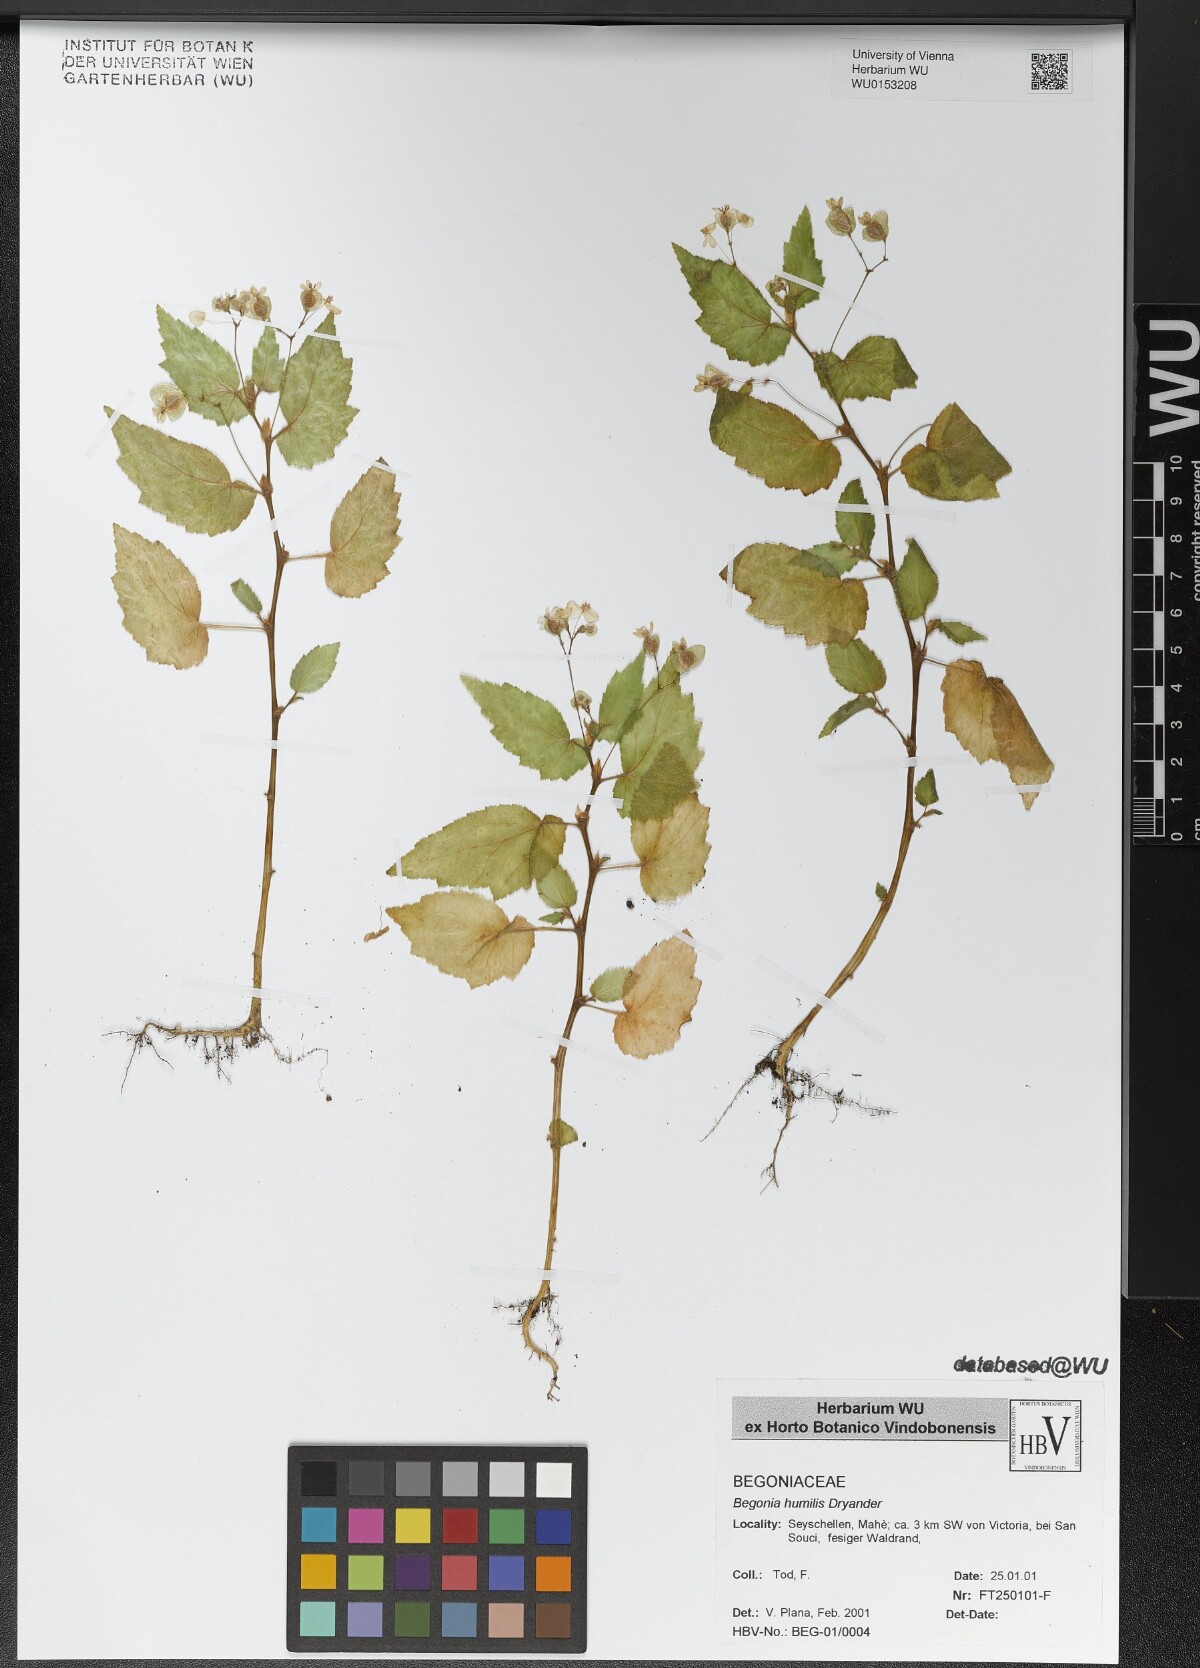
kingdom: Plantae
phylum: Tracheophyta
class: Magnoliopsida
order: Cucurbitales
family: Begoniaceae
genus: Begonia
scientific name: Begonia humilis
